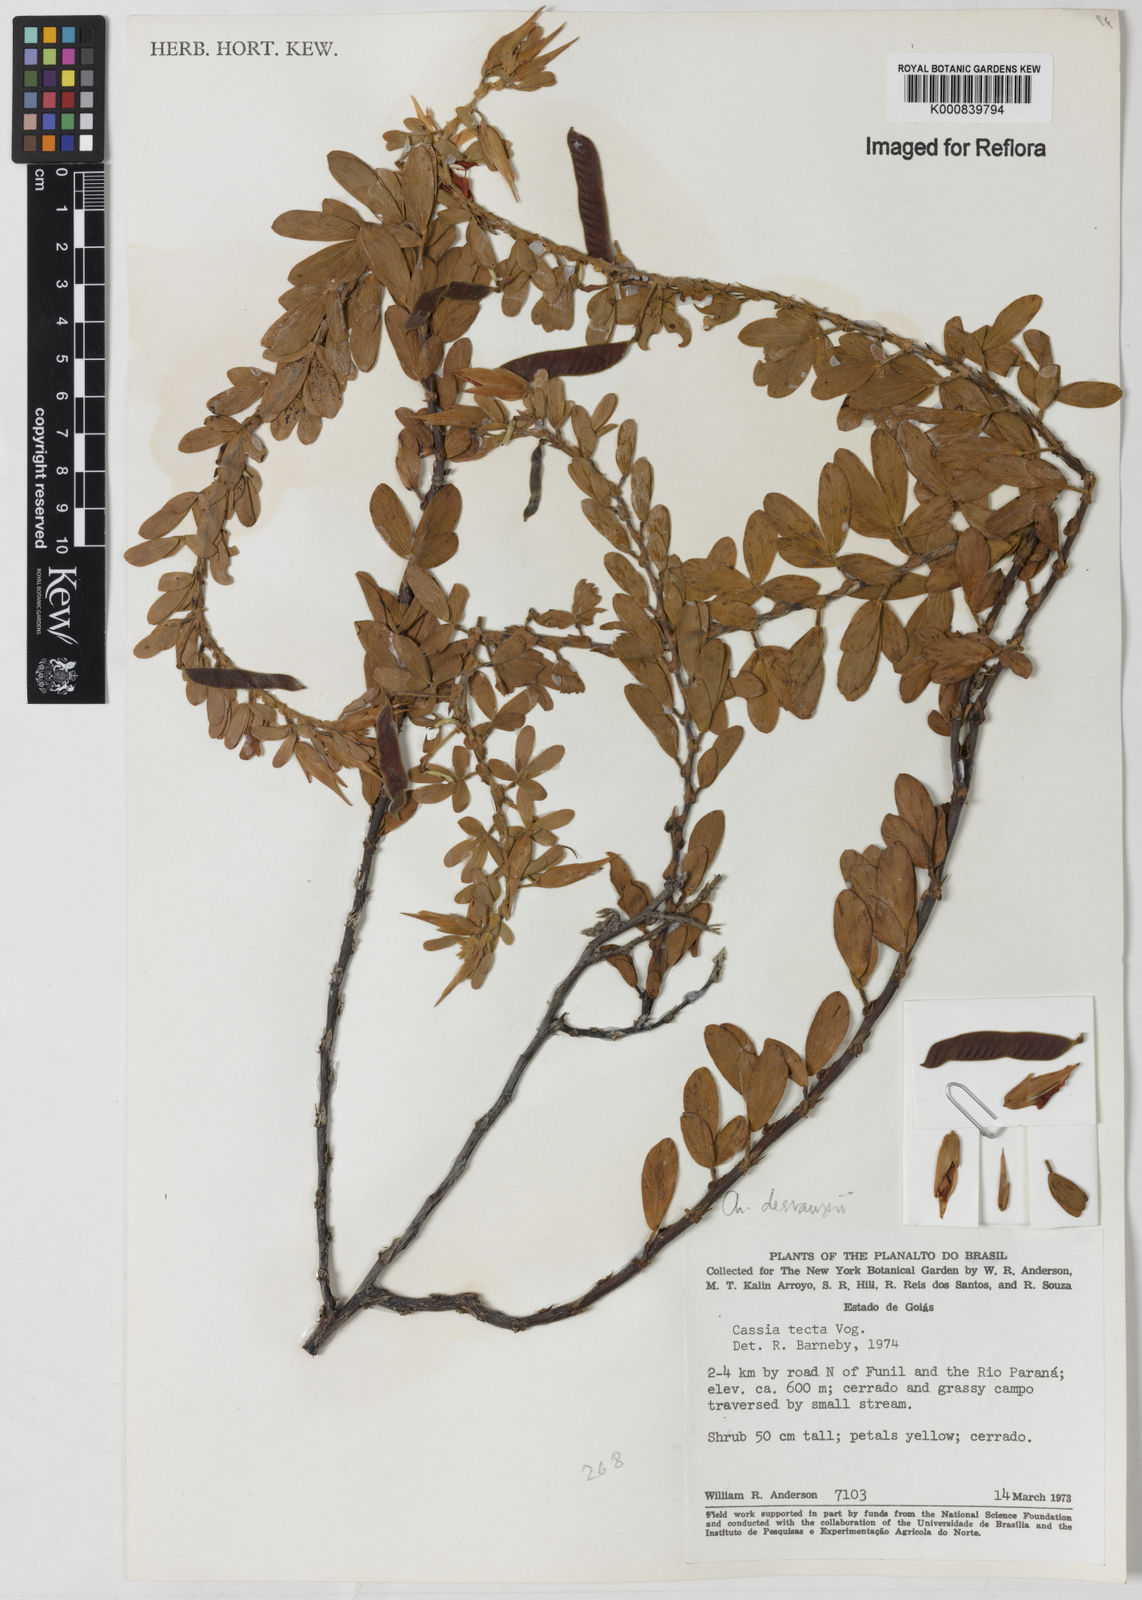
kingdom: Plantae
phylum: Tracheophyta
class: Magnoliopsida
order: Fabales
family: Fabaceae
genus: Chamaecrista
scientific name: Chamaecrista desvauxii
